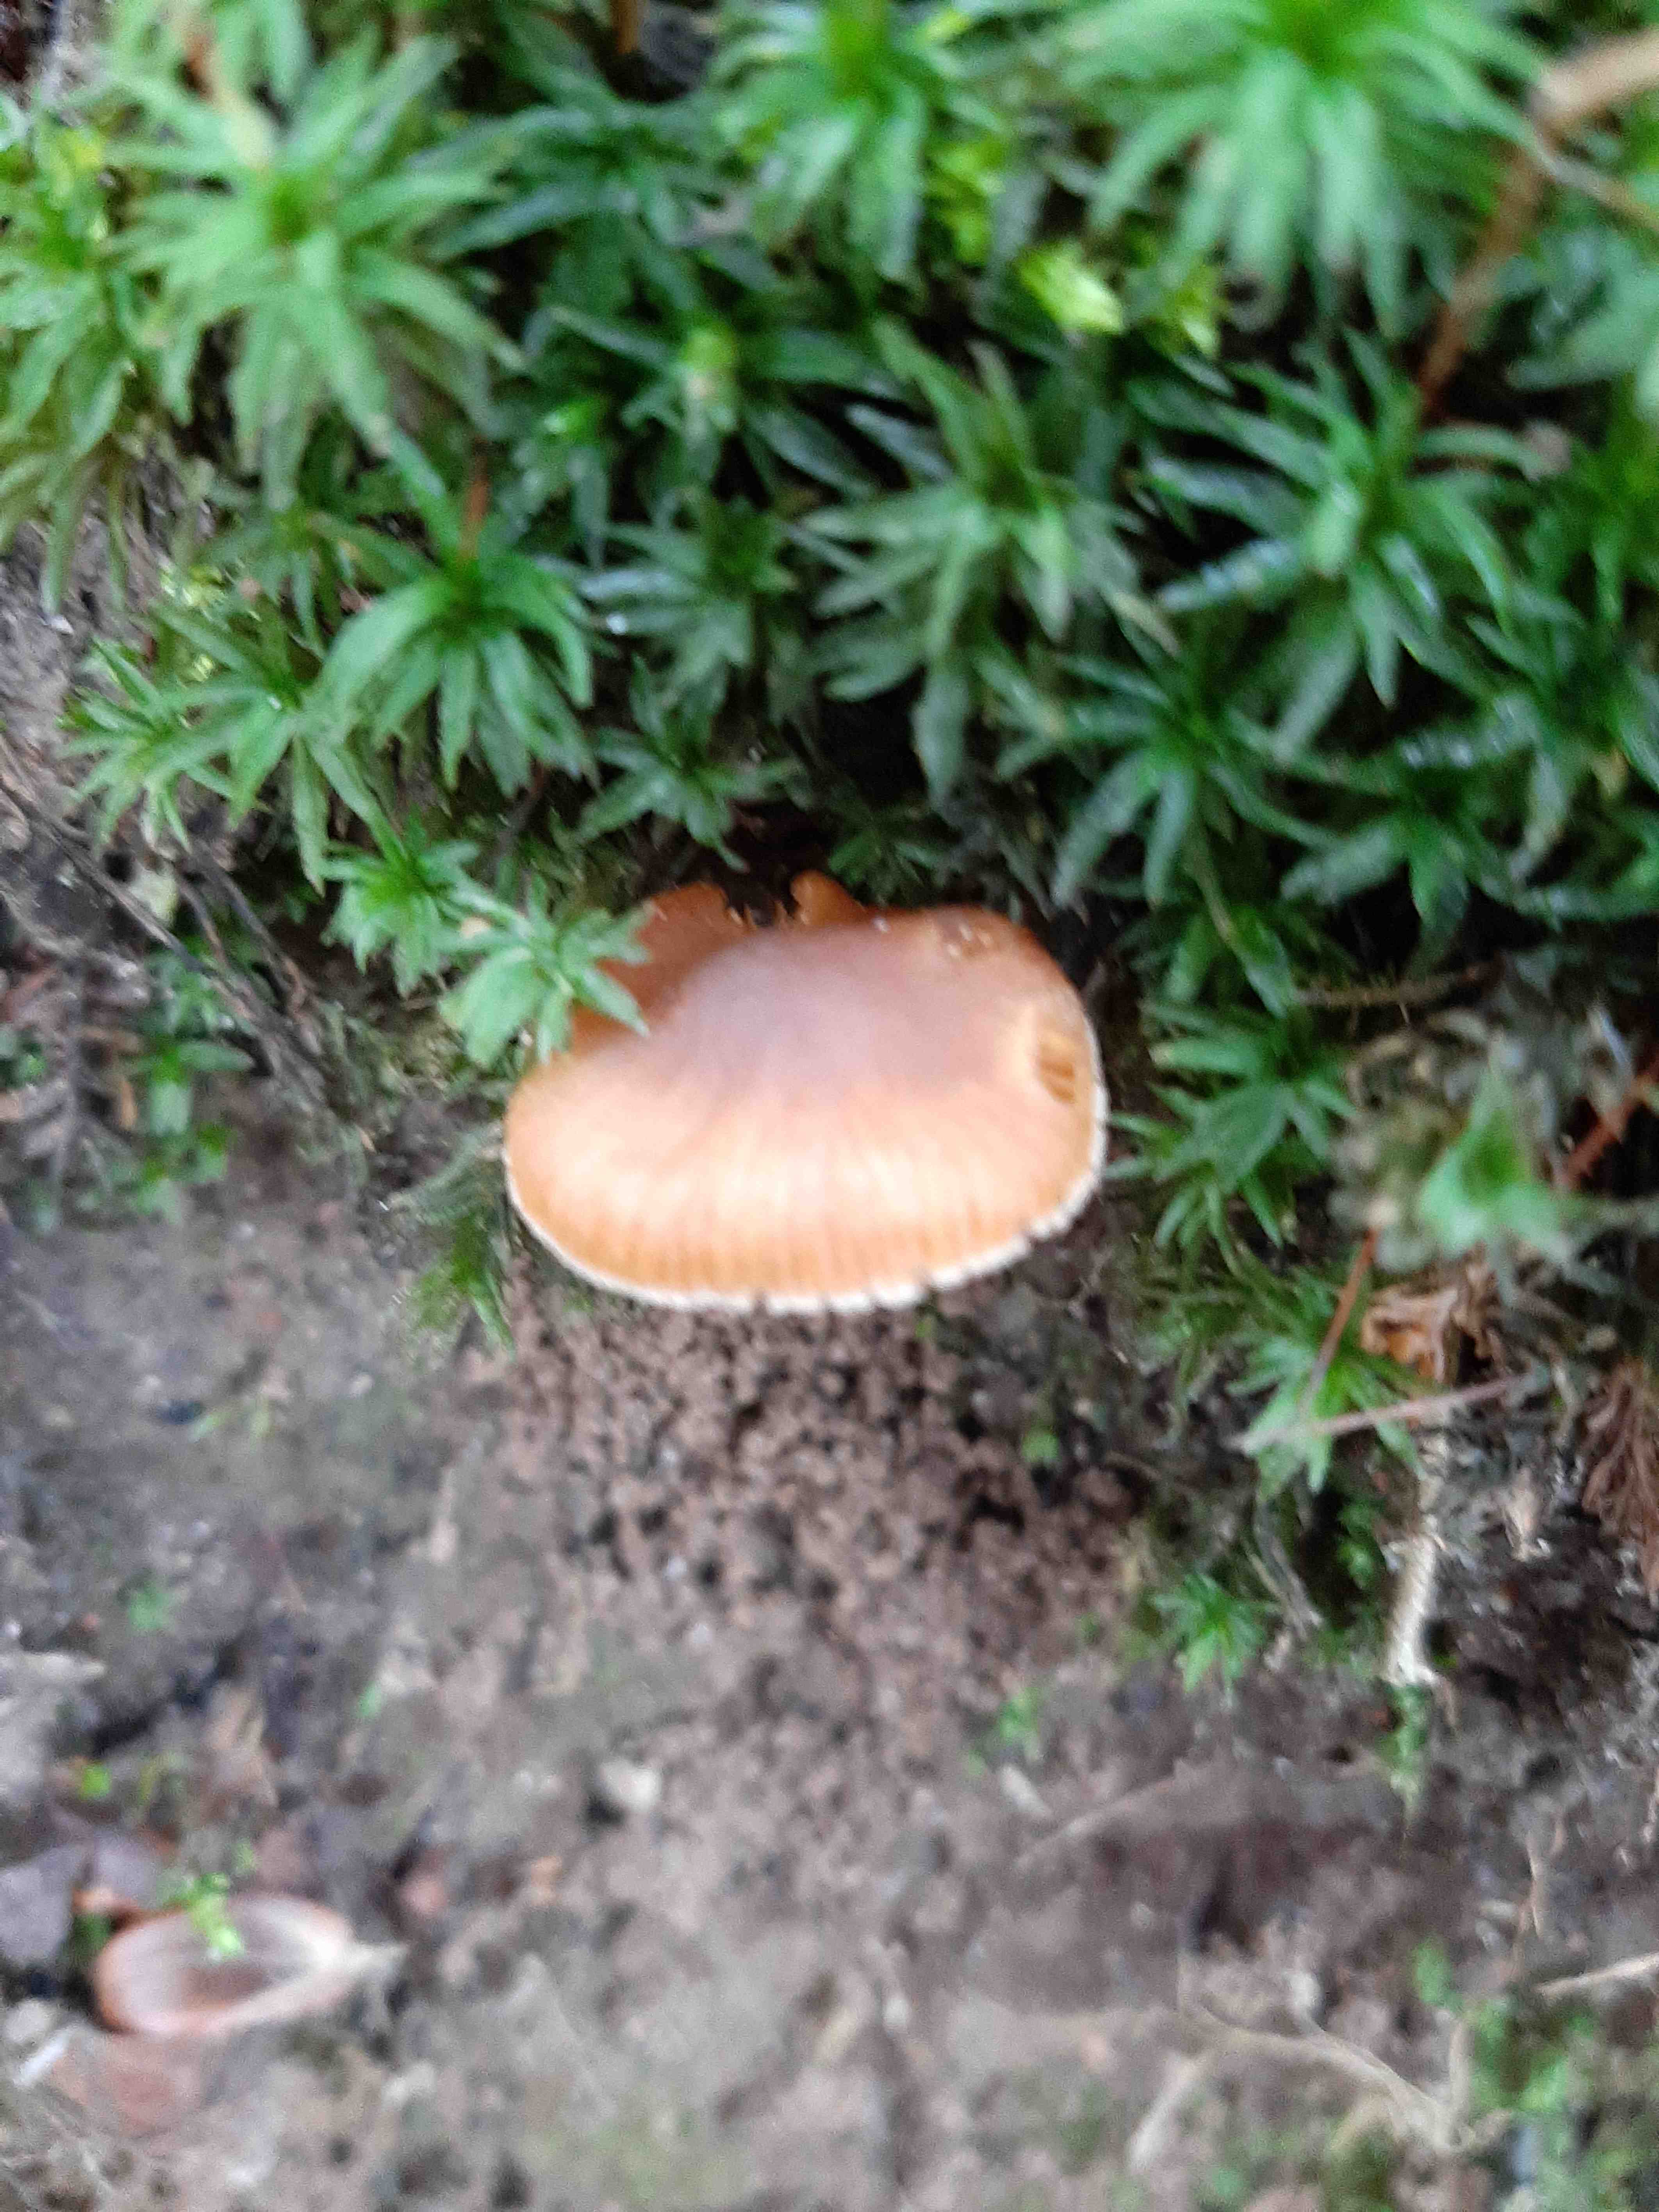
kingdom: Fungi
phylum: Basidiomycota
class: Agaricomycetes
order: Agaricales
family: Cortinariaceae
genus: Cortinarius
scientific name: Cortinarius
